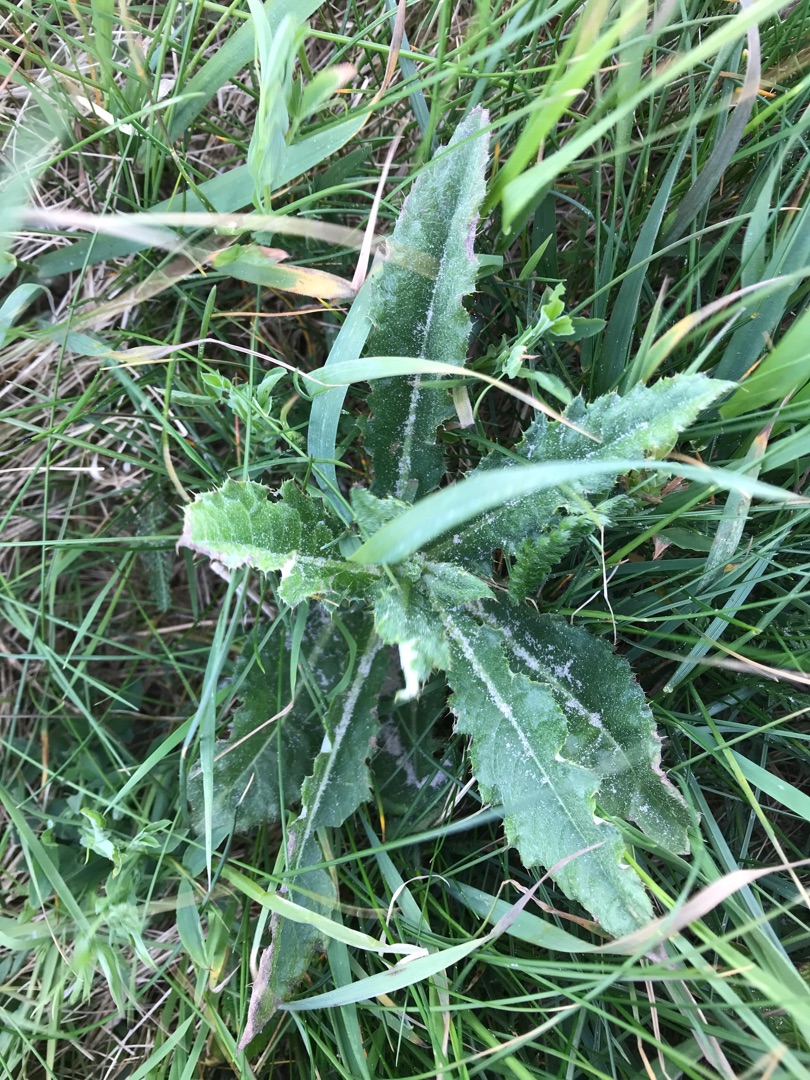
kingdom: Plantae
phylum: Tracheophyta
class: Magnoliopsida
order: Asterales
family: Asteraceae
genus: Cirsium
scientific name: Cirsium arvense
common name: Ager-tidsel
